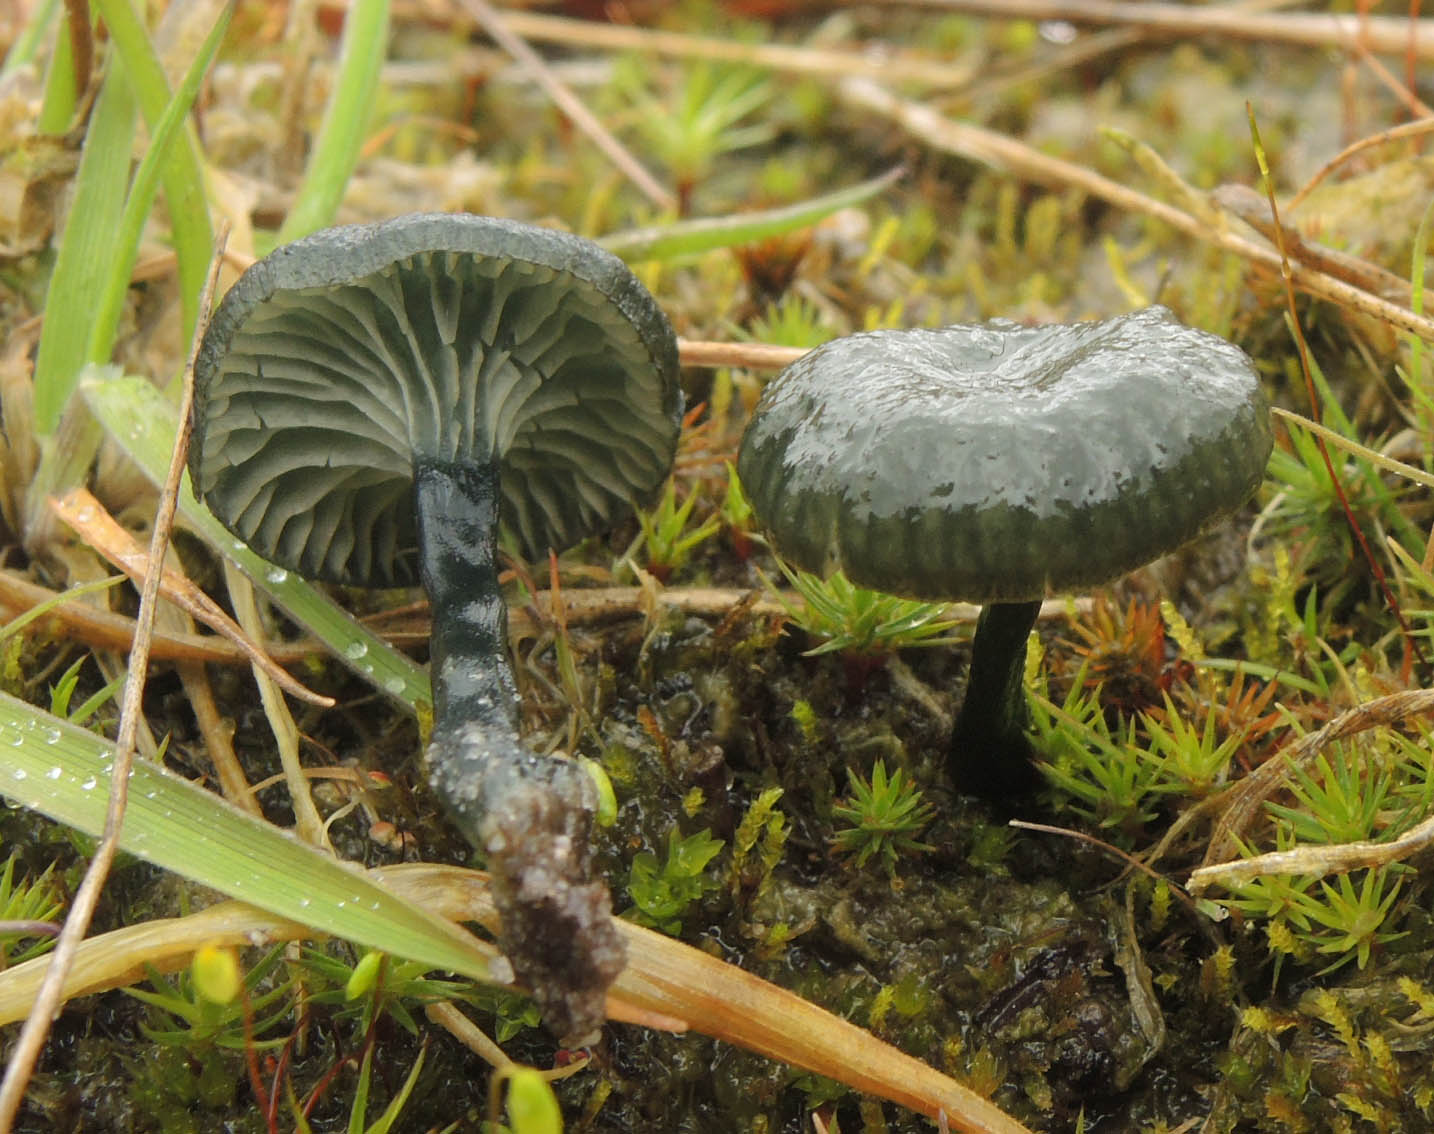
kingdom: Fungi
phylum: Basidiomycota
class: Agaricomycetes
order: Agaricales
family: Hygrophoraceae
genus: Arrhenia
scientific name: Arrhenia chlorocyanea
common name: blågrøn fontænehat
